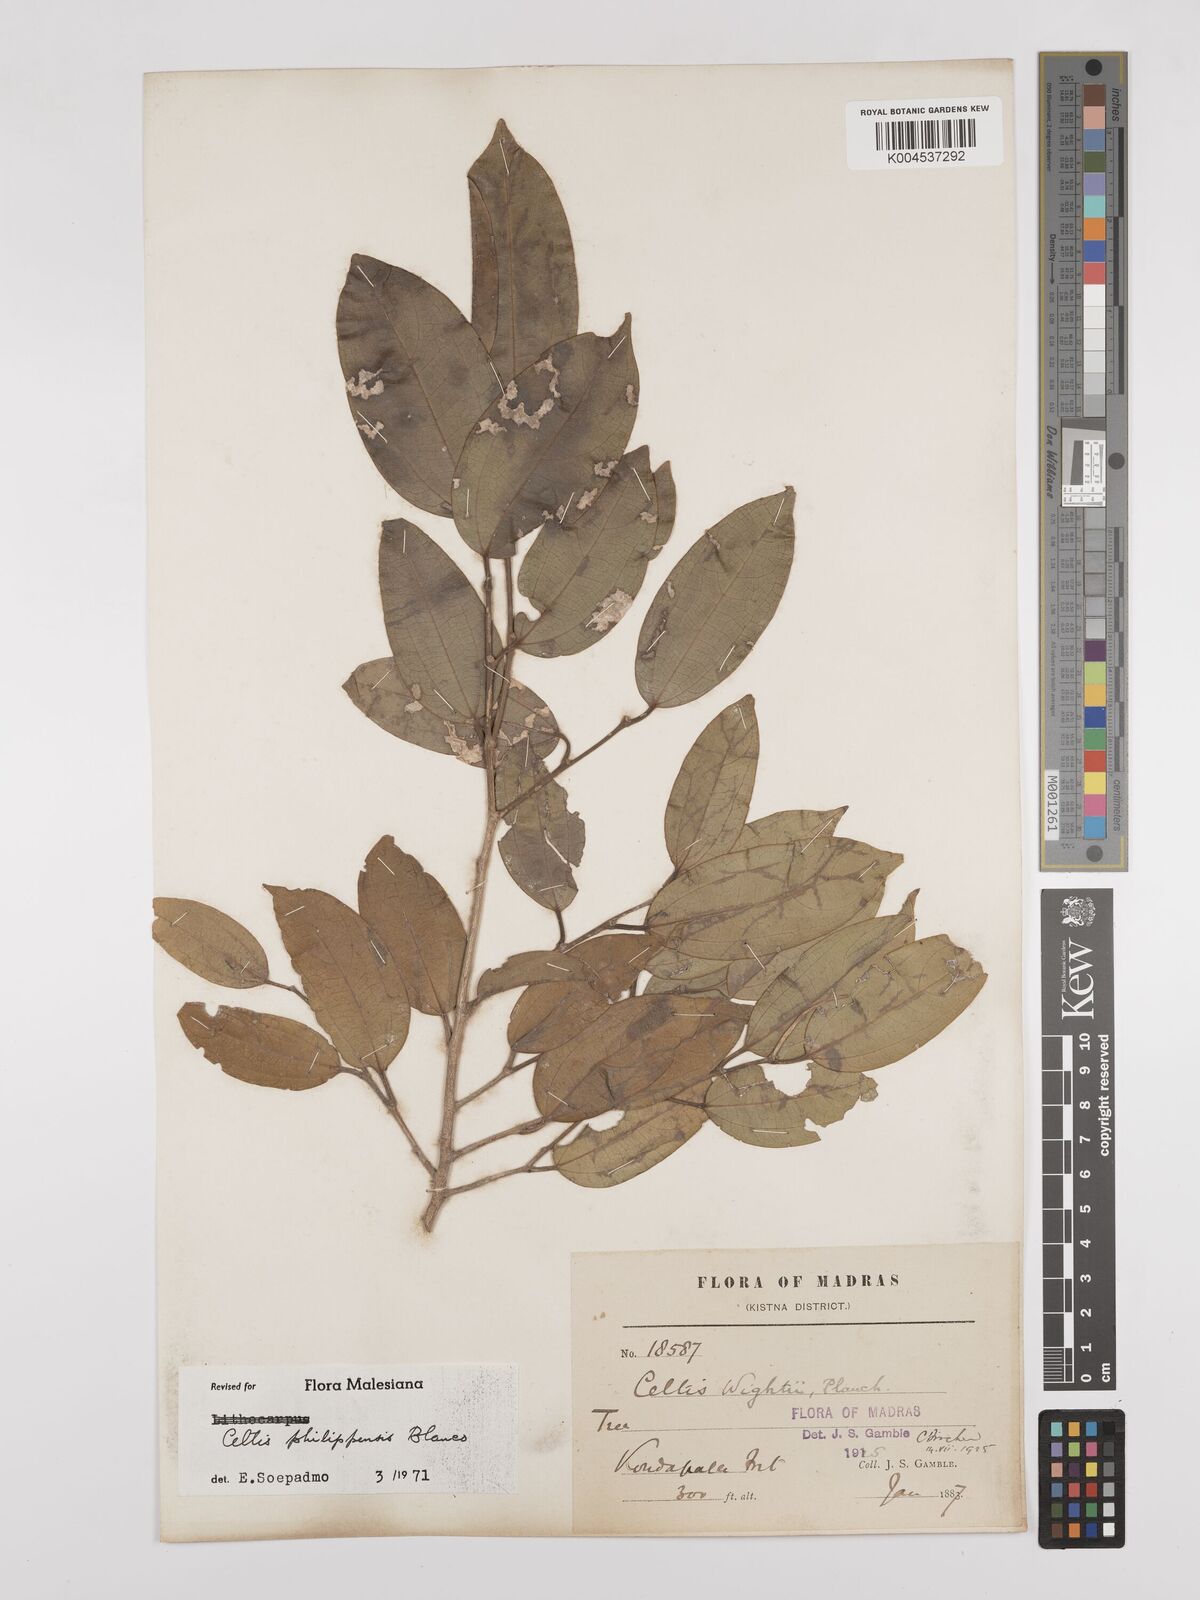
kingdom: Plantae
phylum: Tracheophyta
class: Magnoliopsida
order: Rosales
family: Cannabaceae
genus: Celtis
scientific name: Celtis philippensis
